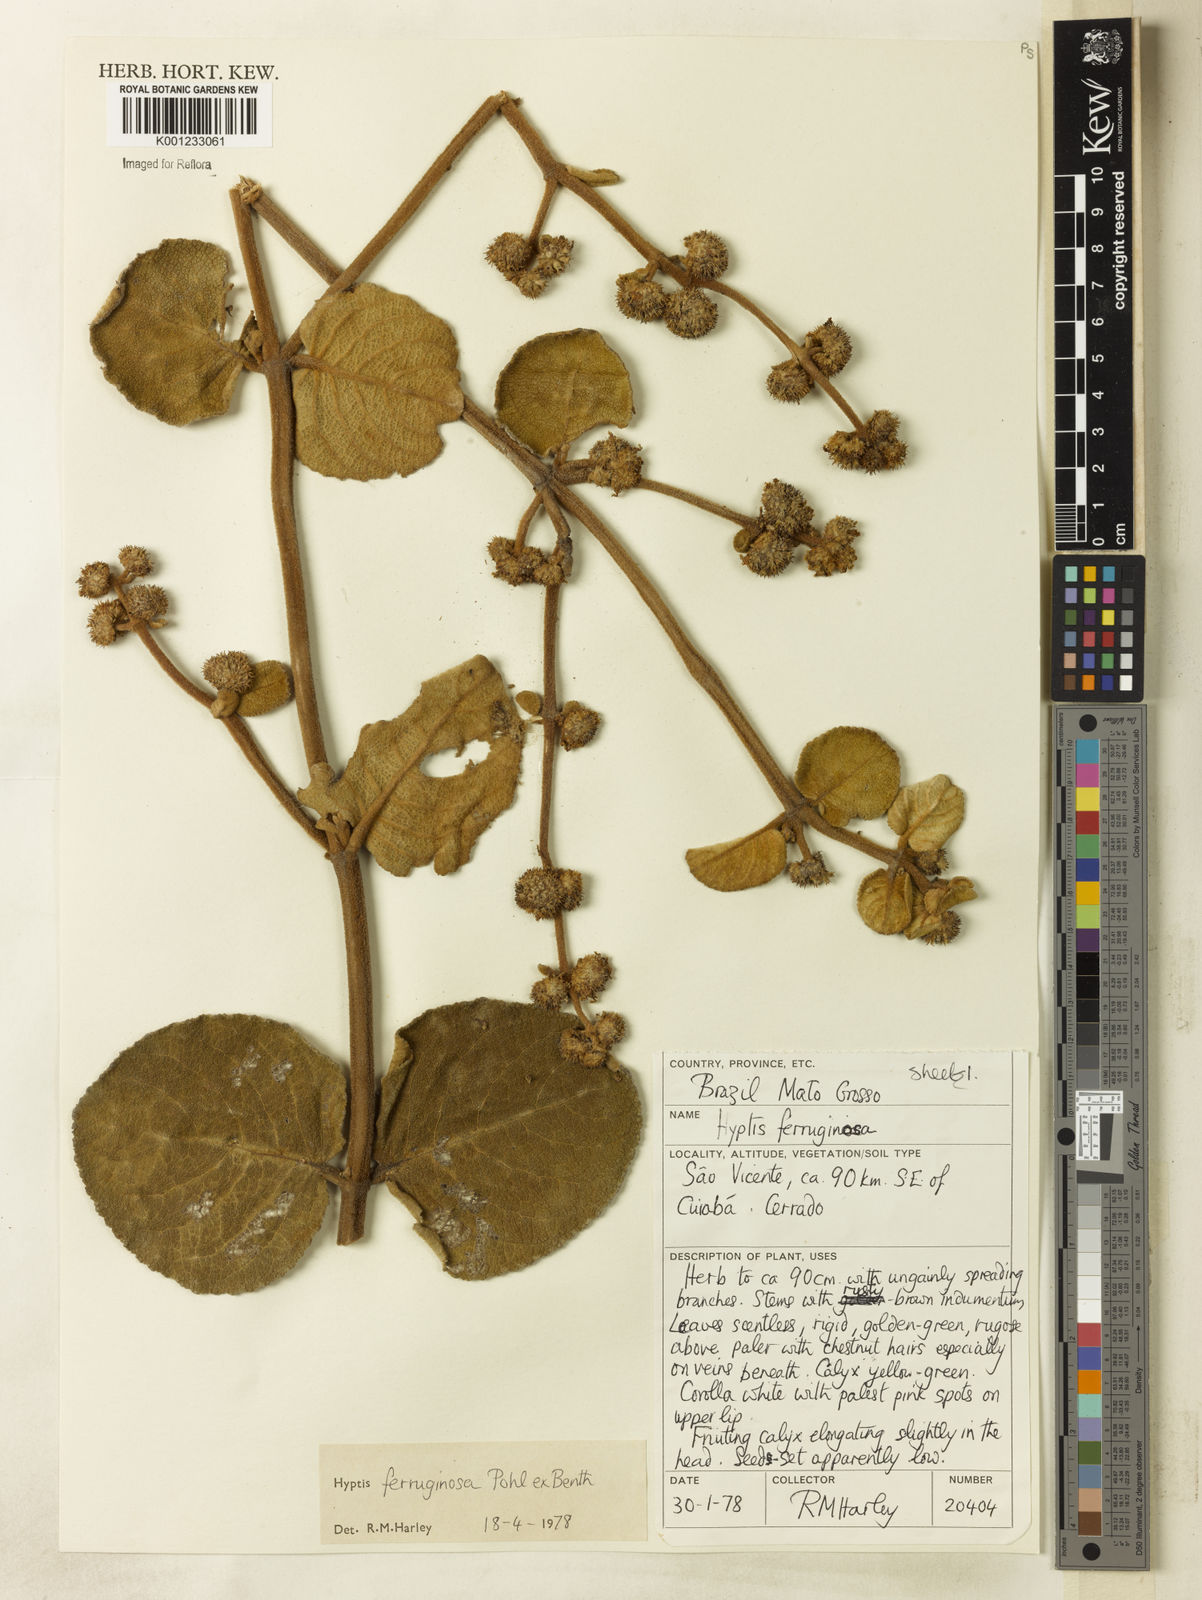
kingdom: Plantae
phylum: Tracheophyta
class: Magnoliopsida
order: Lamiales
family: Lamiaceae
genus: Hyptis
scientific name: Hyptis ferruginosa
